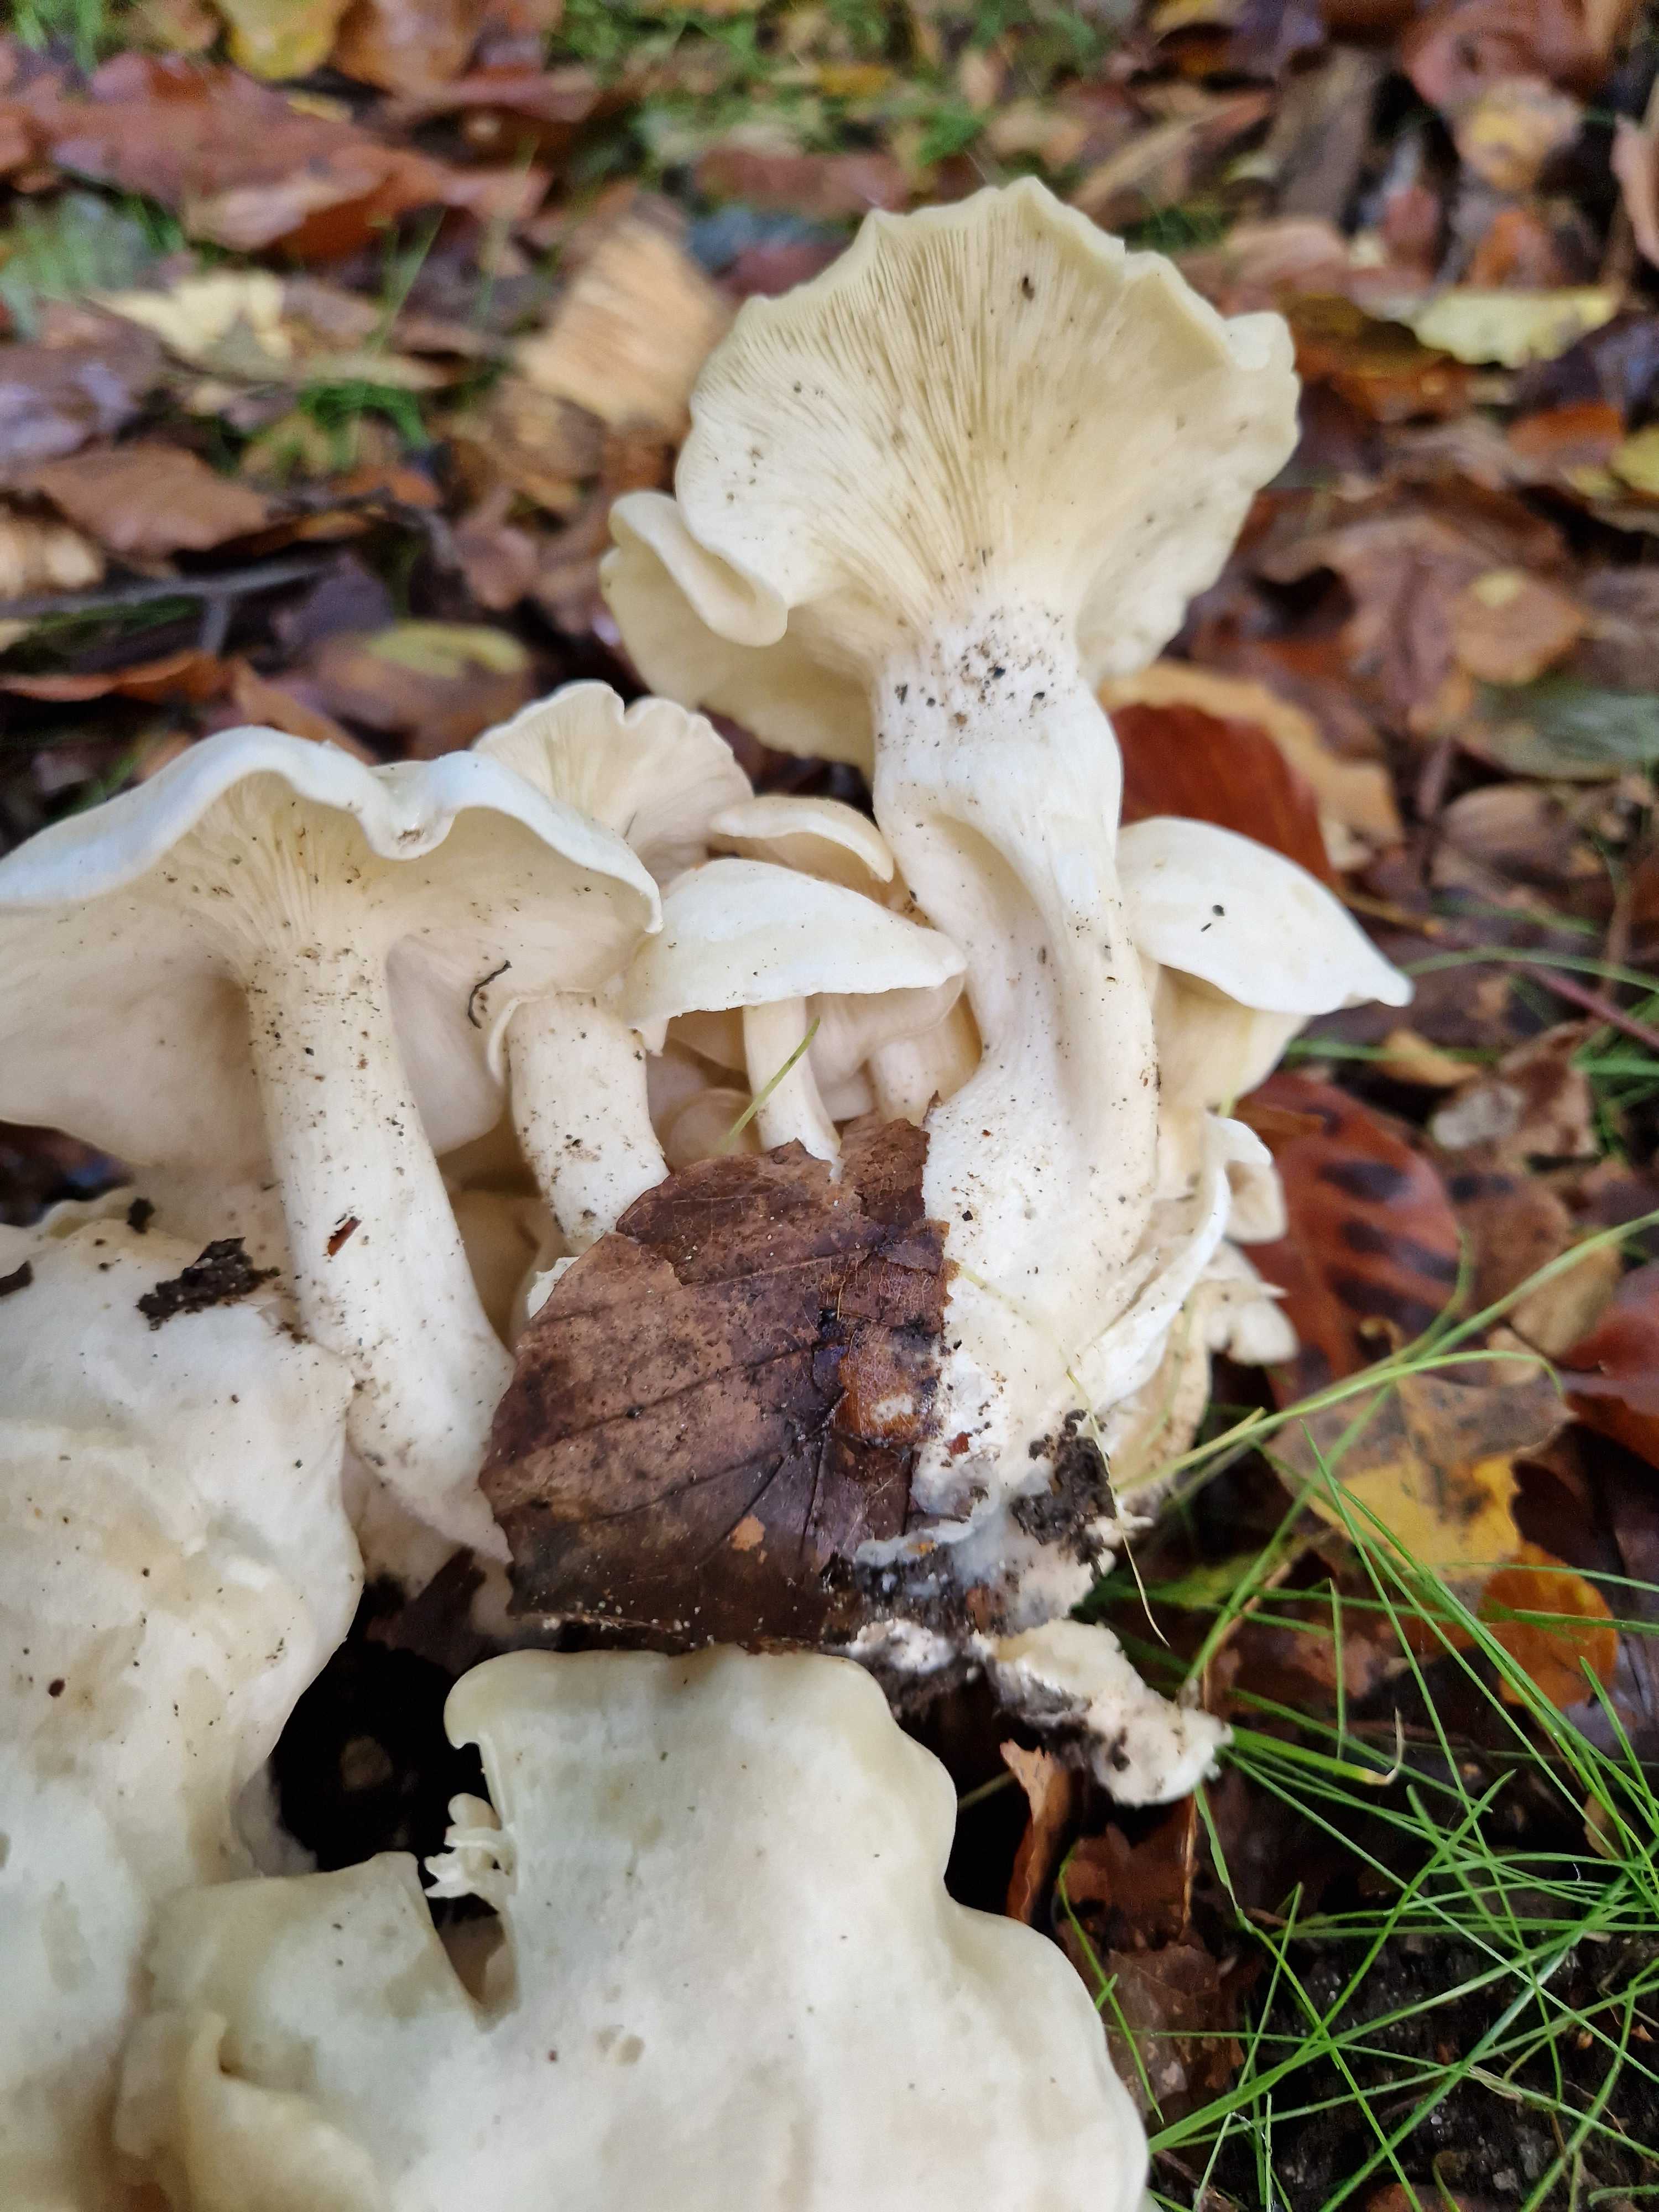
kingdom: Fungi
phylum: Basidiomycota
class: Agaricomycetes
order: Agaricales
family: Tricholomataceae
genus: Leucocybe
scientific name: Leucocybe connata
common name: knippe-tragthat
